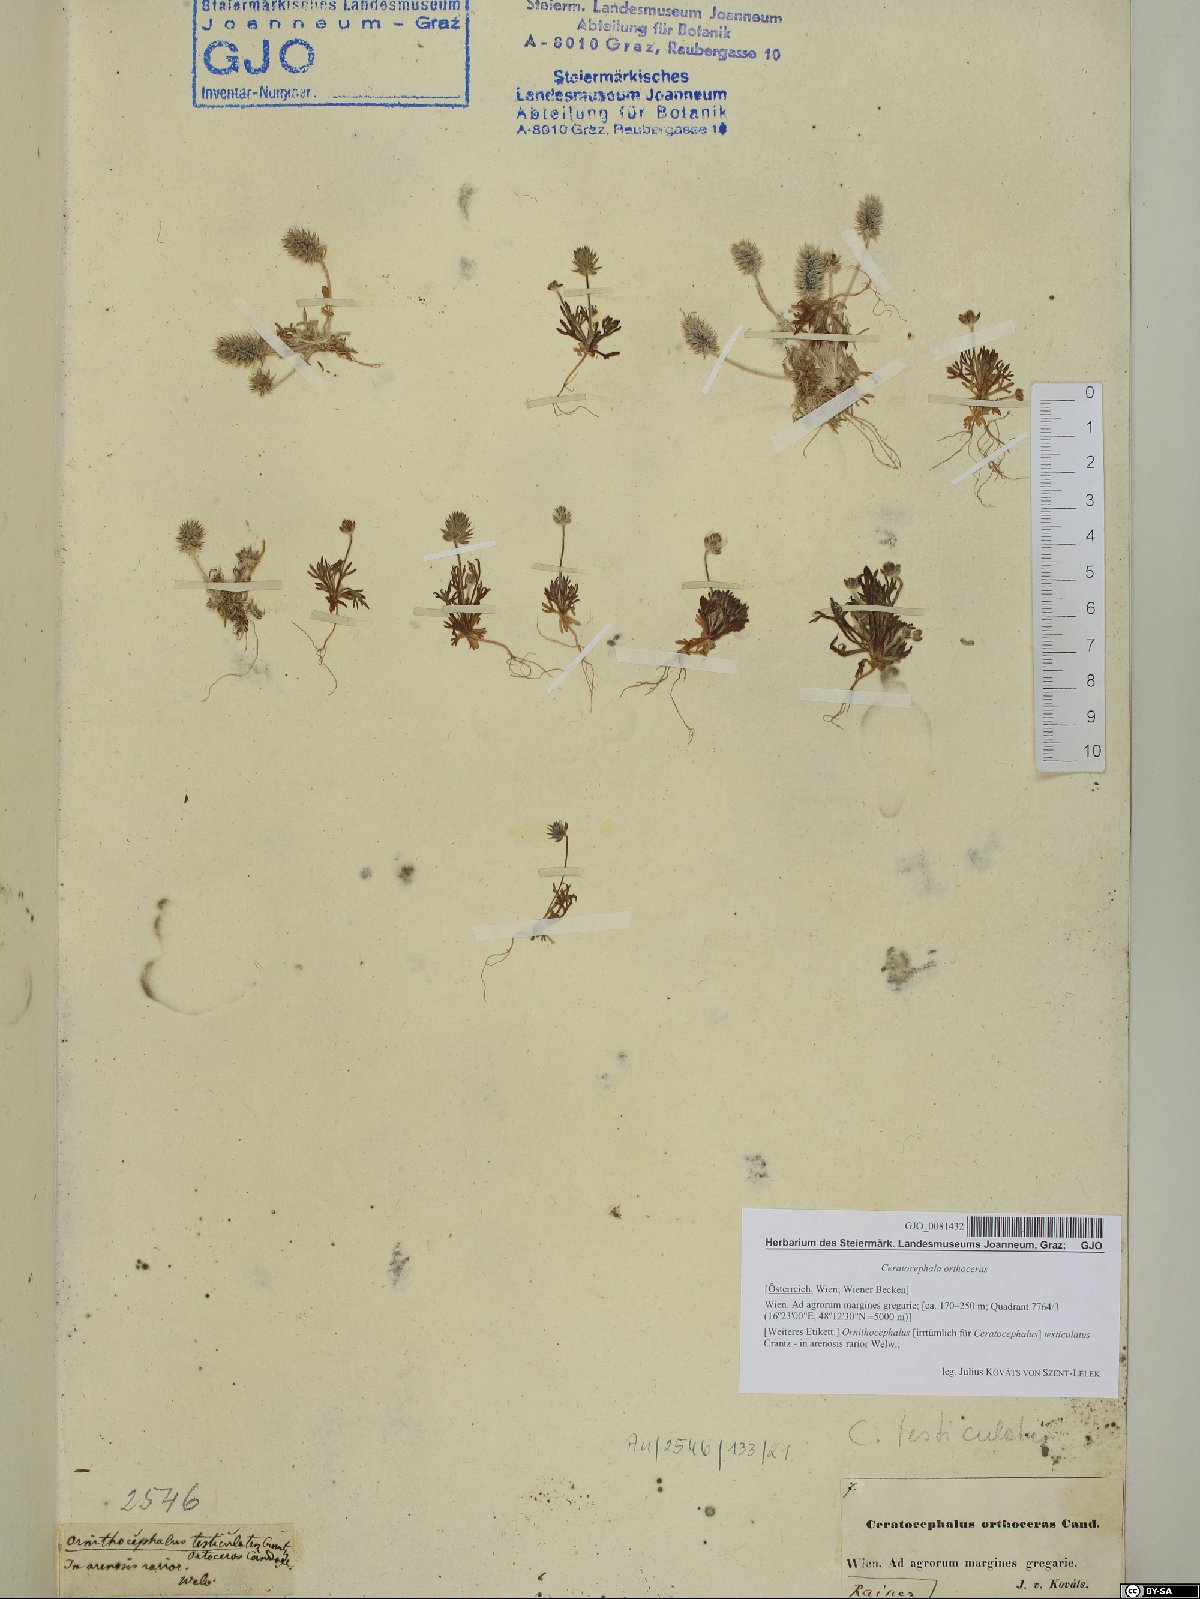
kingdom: Plantae
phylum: Tracheophyta
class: Magnoliopsida
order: Ranunculales
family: Ranunculaceae
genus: Ceratocephala
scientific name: Ceratocephala orthoceras
